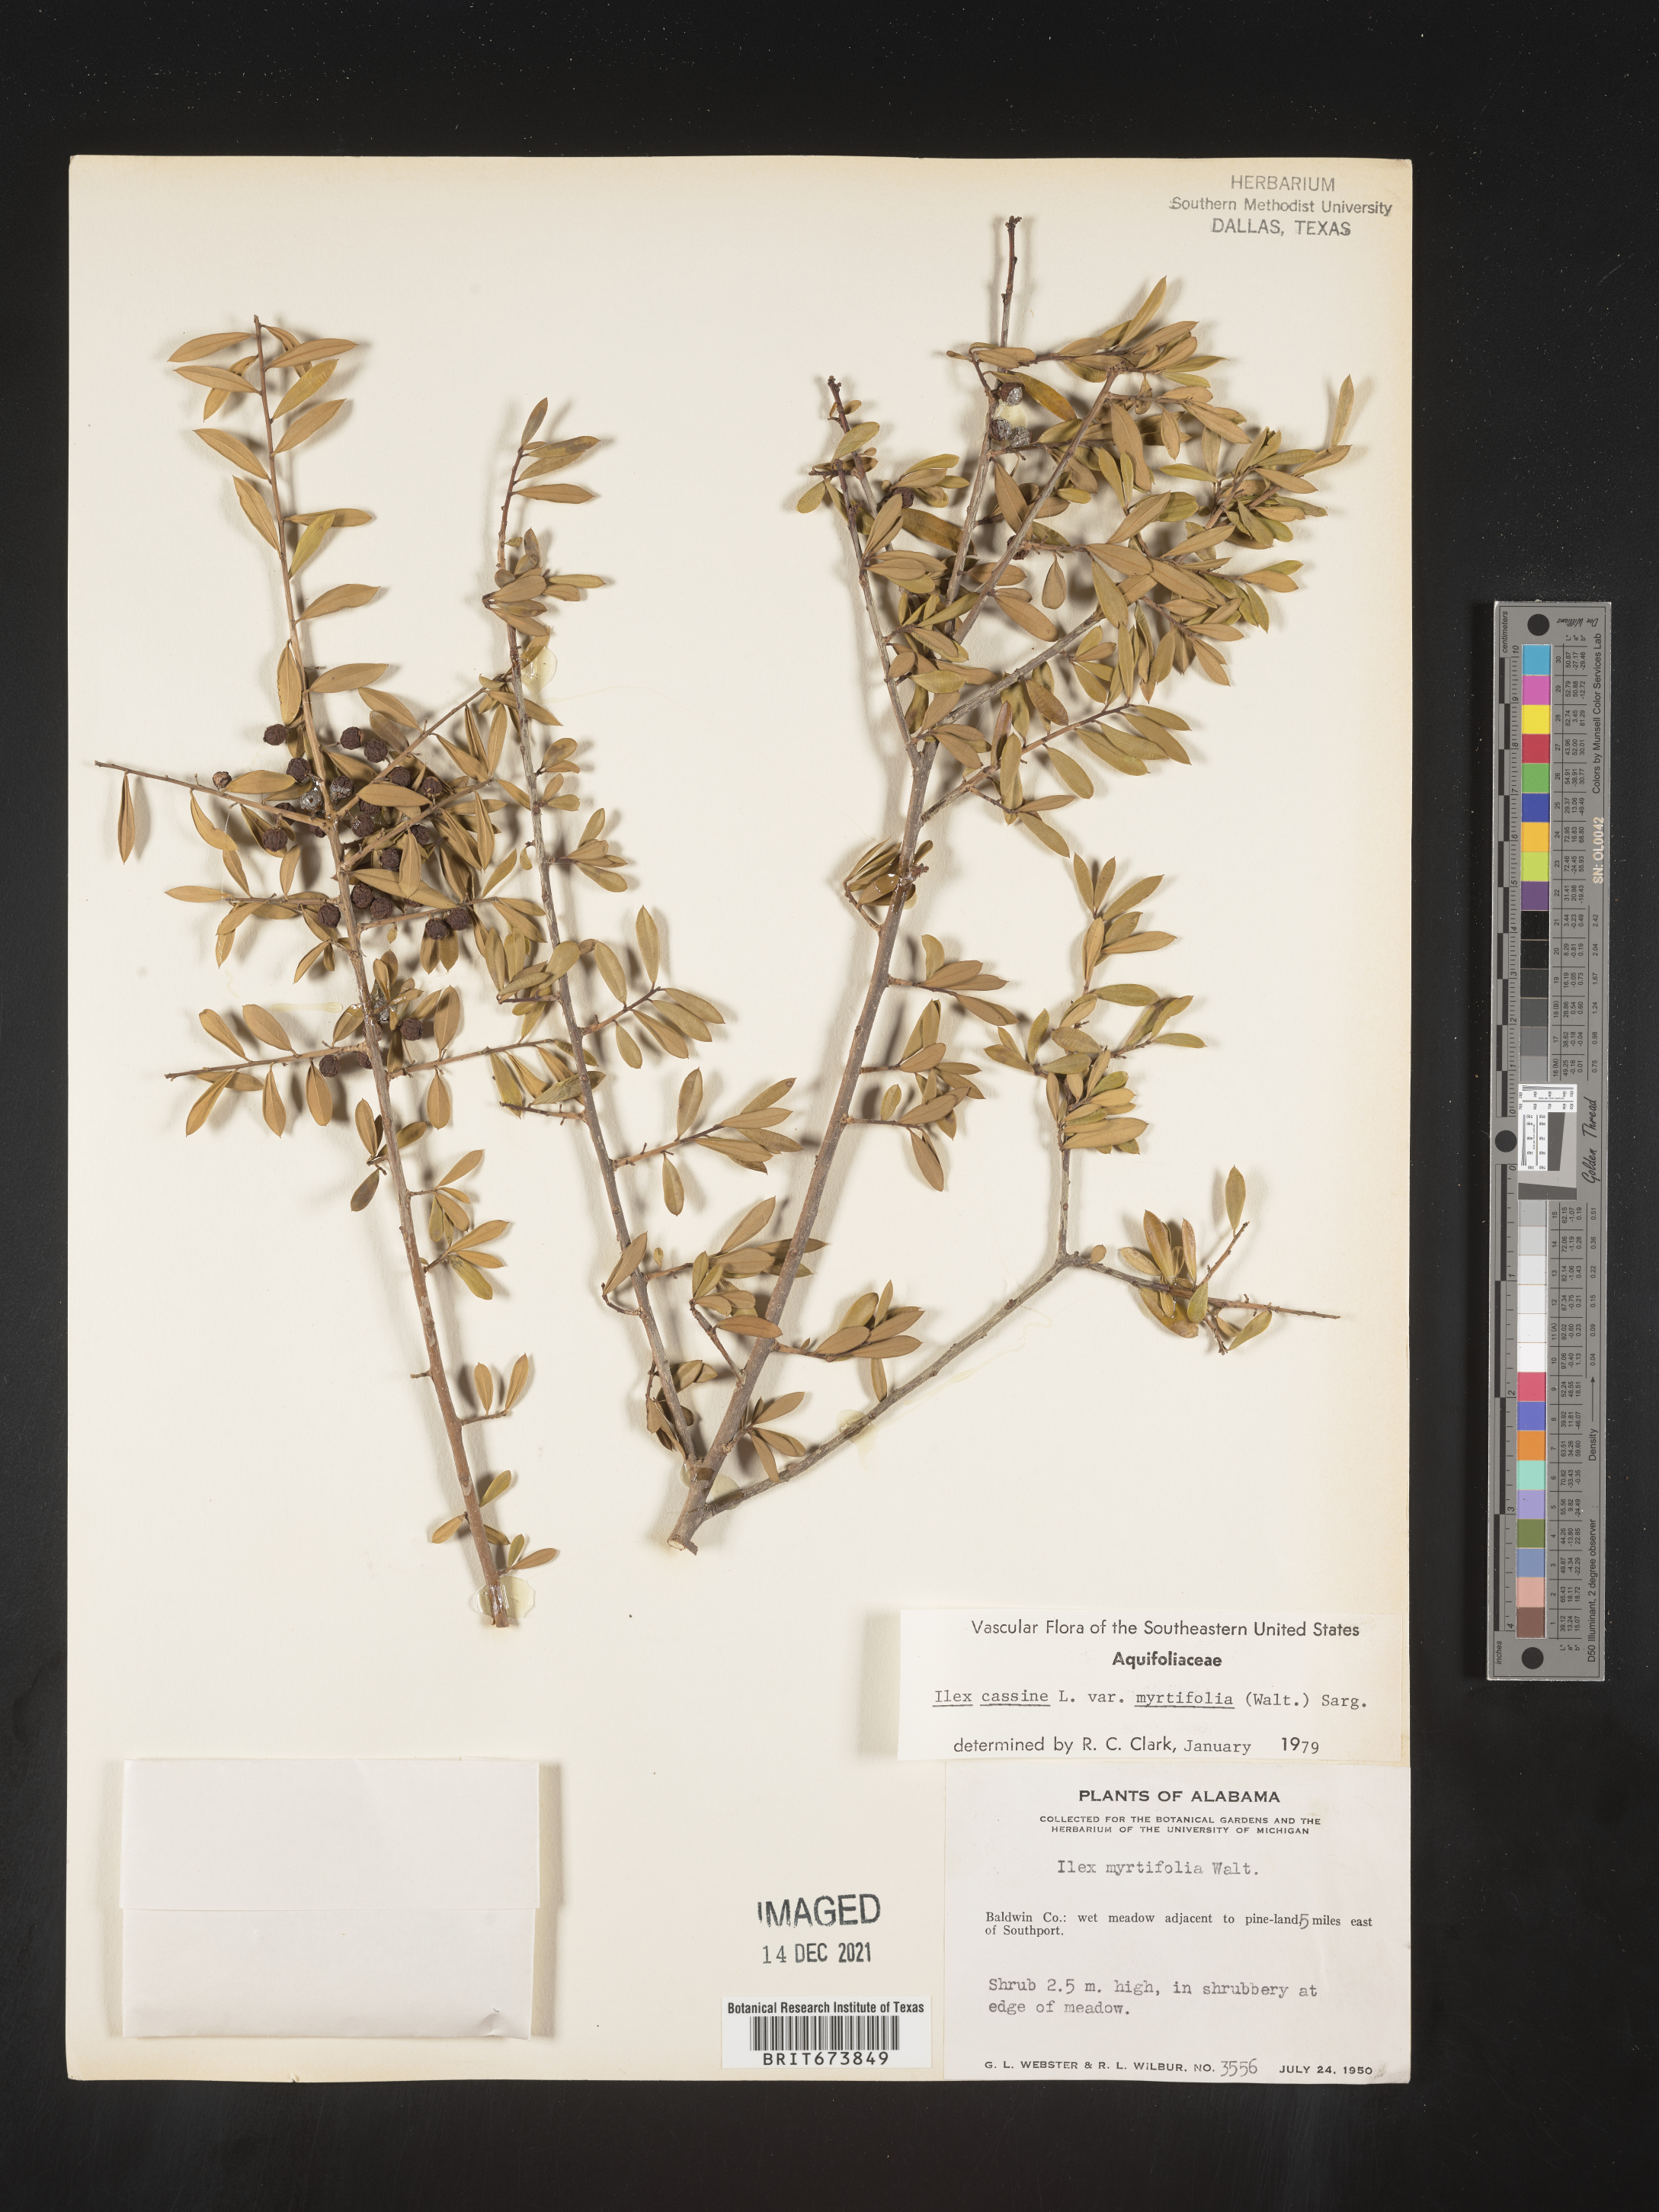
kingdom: Plantae
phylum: Tracheophyta
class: Magnoliopsida
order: Aquifoliales
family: Aquifoliaceae
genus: Ilex
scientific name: Ilex myrtifolia
